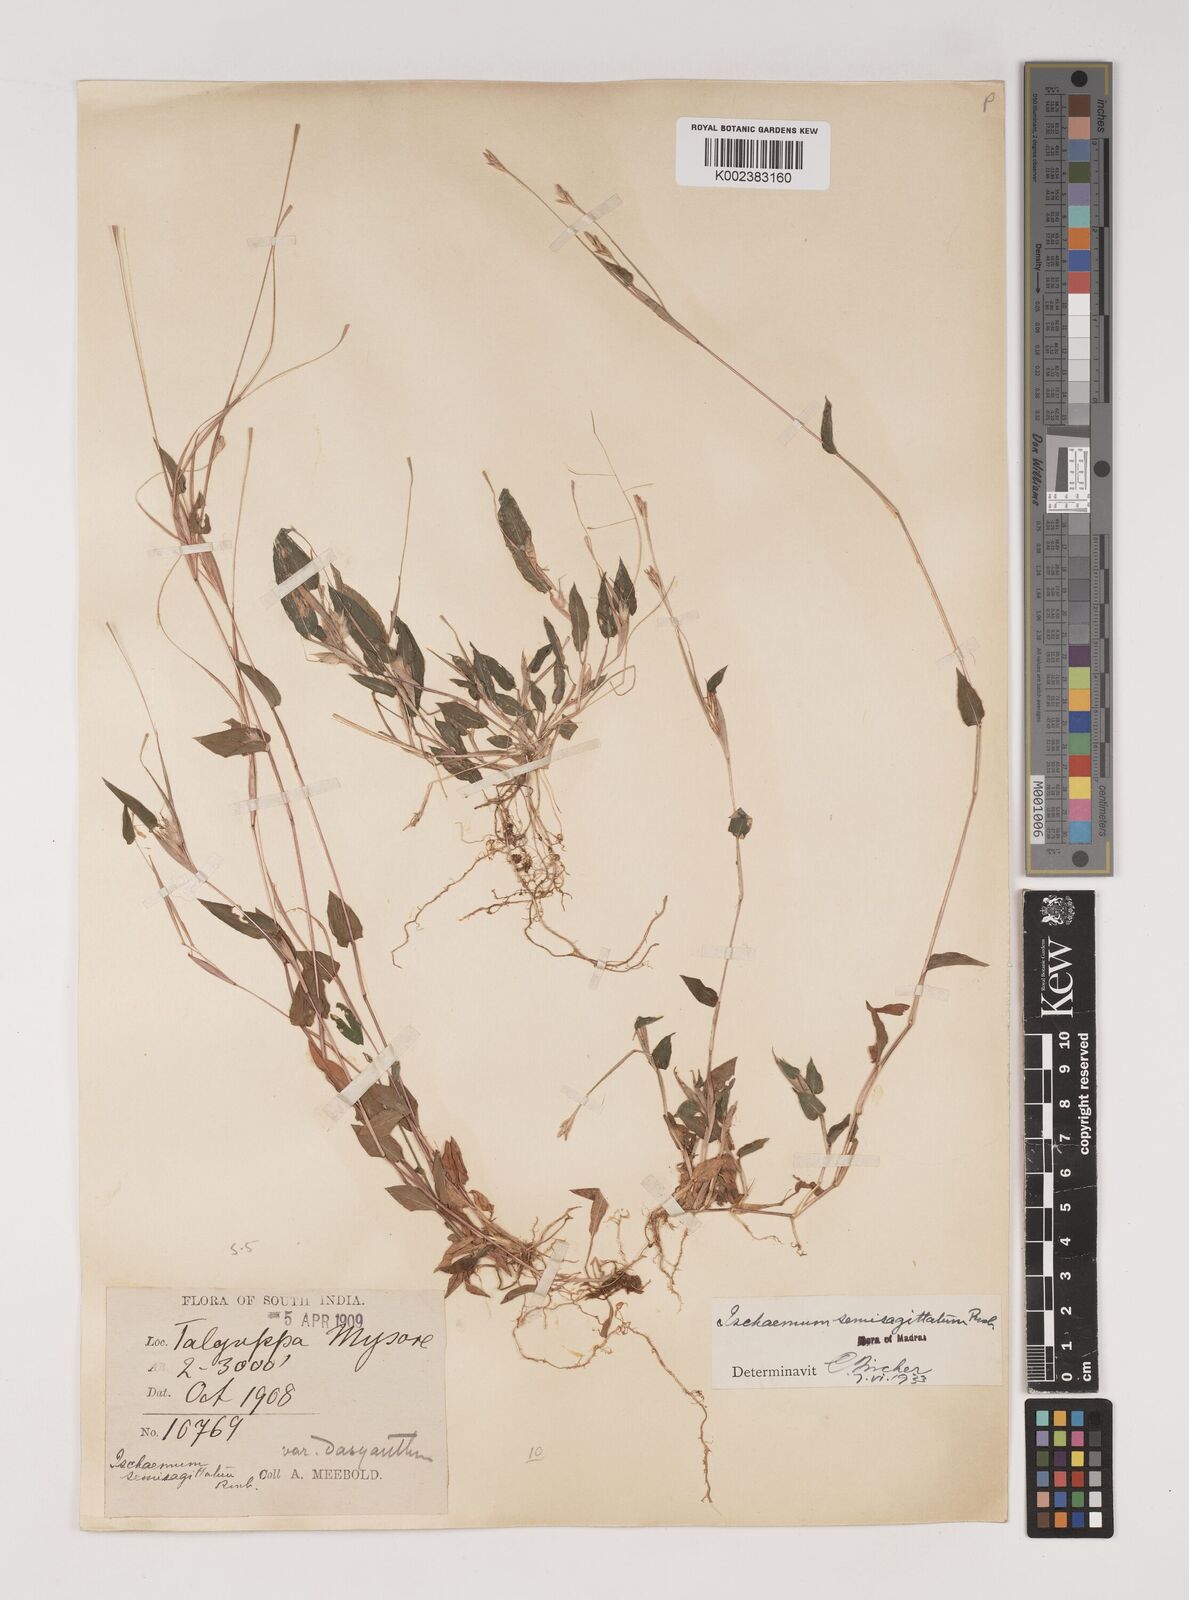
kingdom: Plantae
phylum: Tracheophyta
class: Liliopsida
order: Poales
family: Poaceae
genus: Ischaemum
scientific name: Ischaemum semisagittatum
